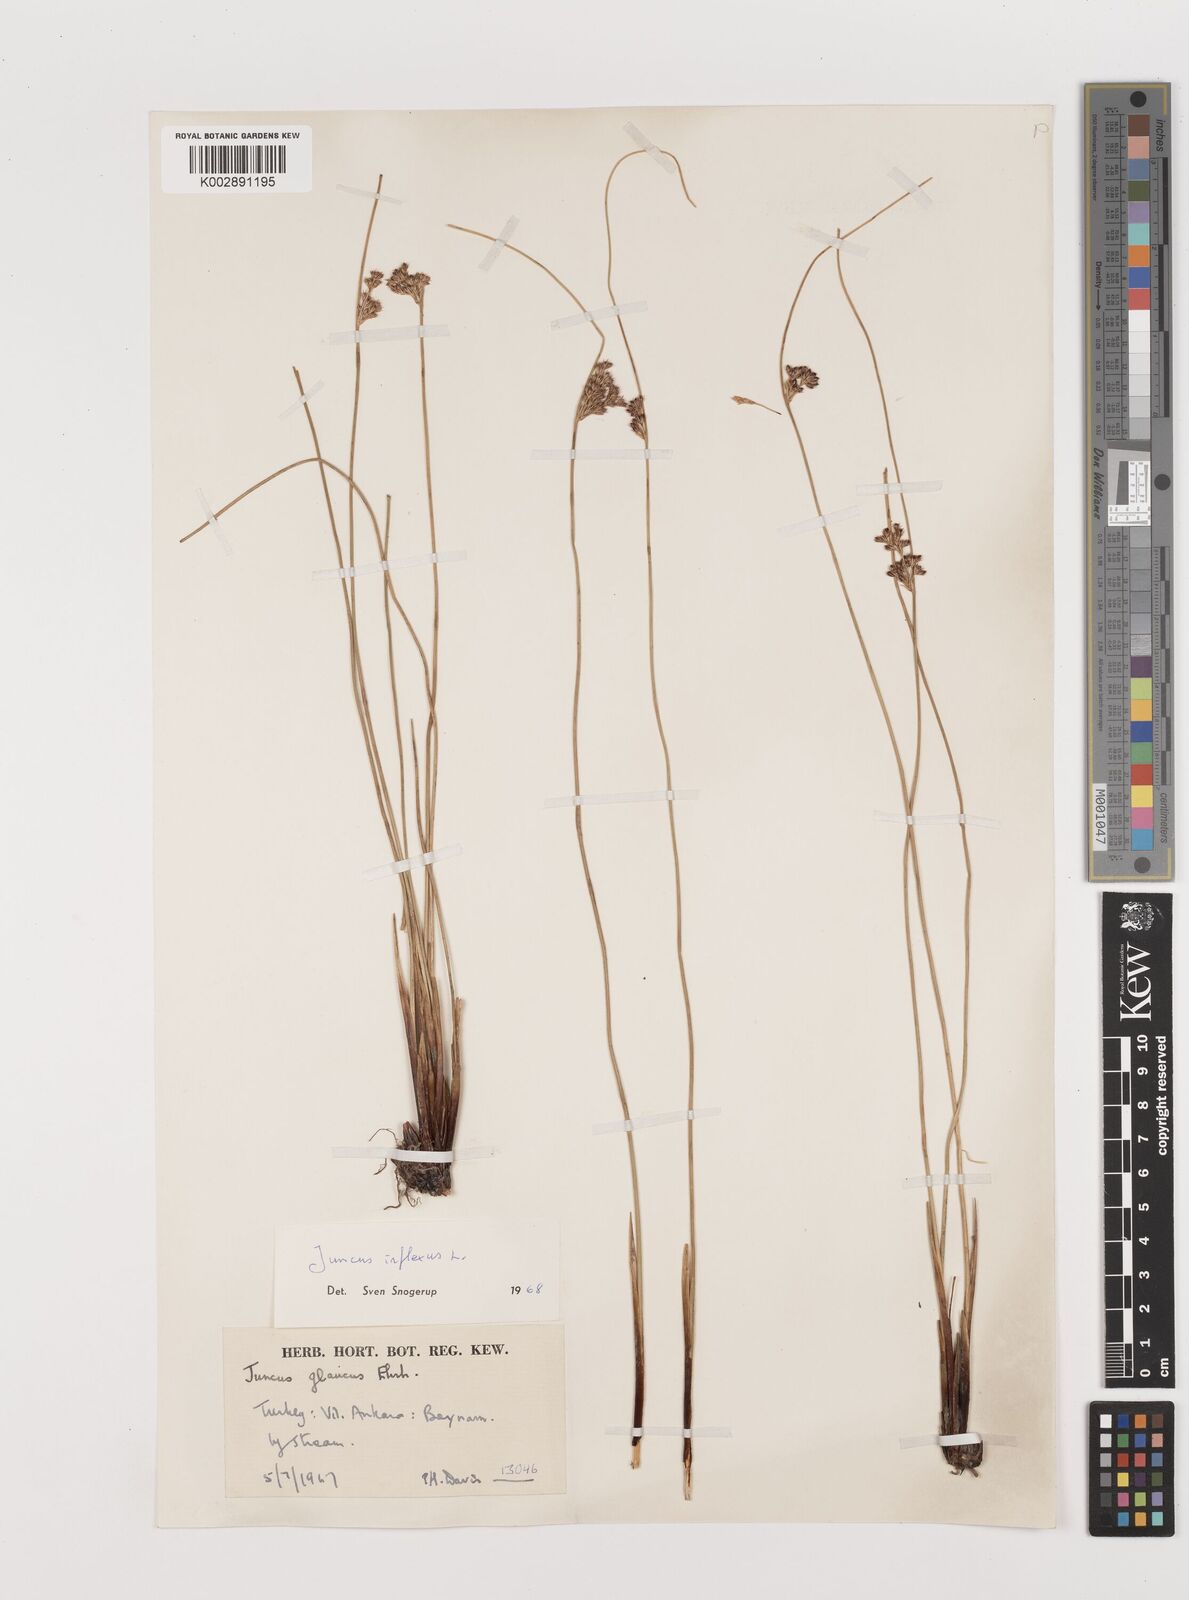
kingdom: Plantae
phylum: Tracheophyta
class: Liliopsida
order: Poales
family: Juncaceae
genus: Juncus
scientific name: Juncus inflexus
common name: Hard rush
